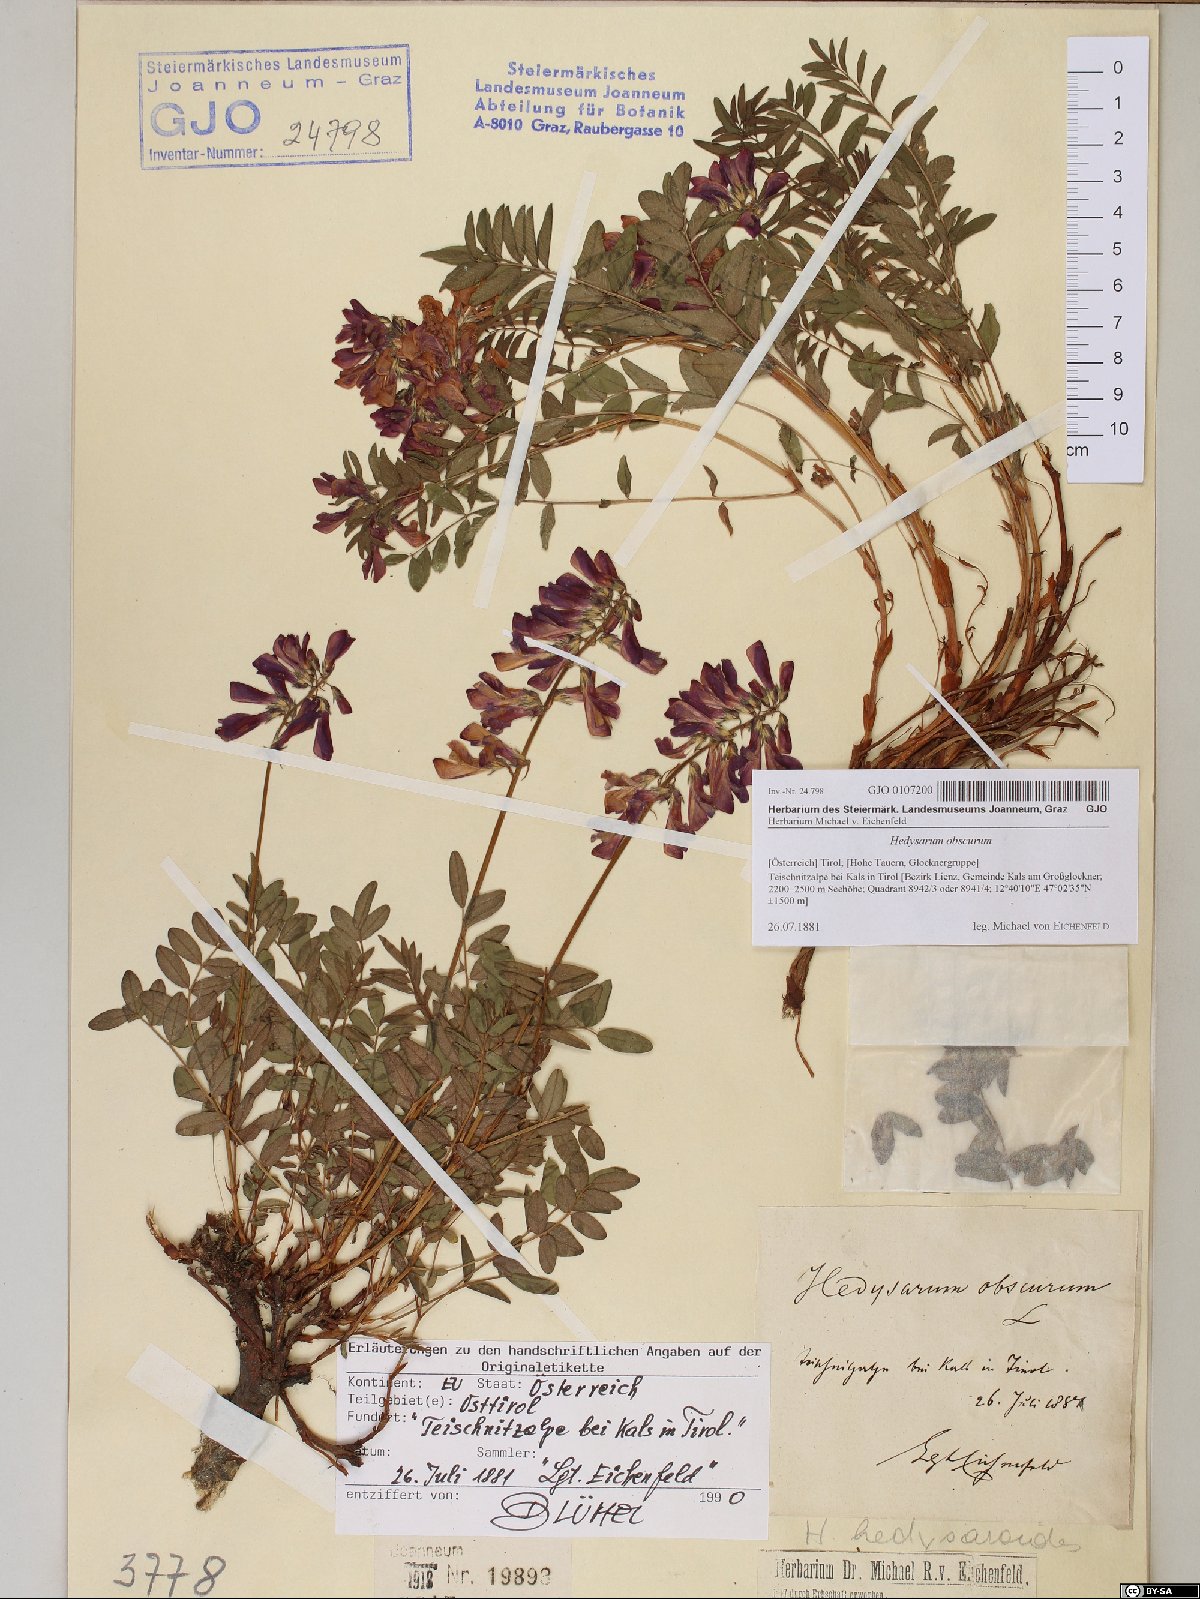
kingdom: Plantae
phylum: Tracheophyta
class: Magnoliopsida
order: Fabales
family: Fabaceae
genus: Hedysarum
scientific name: Hedysarum hedysaroides
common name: Alpine french-honeysuckle
